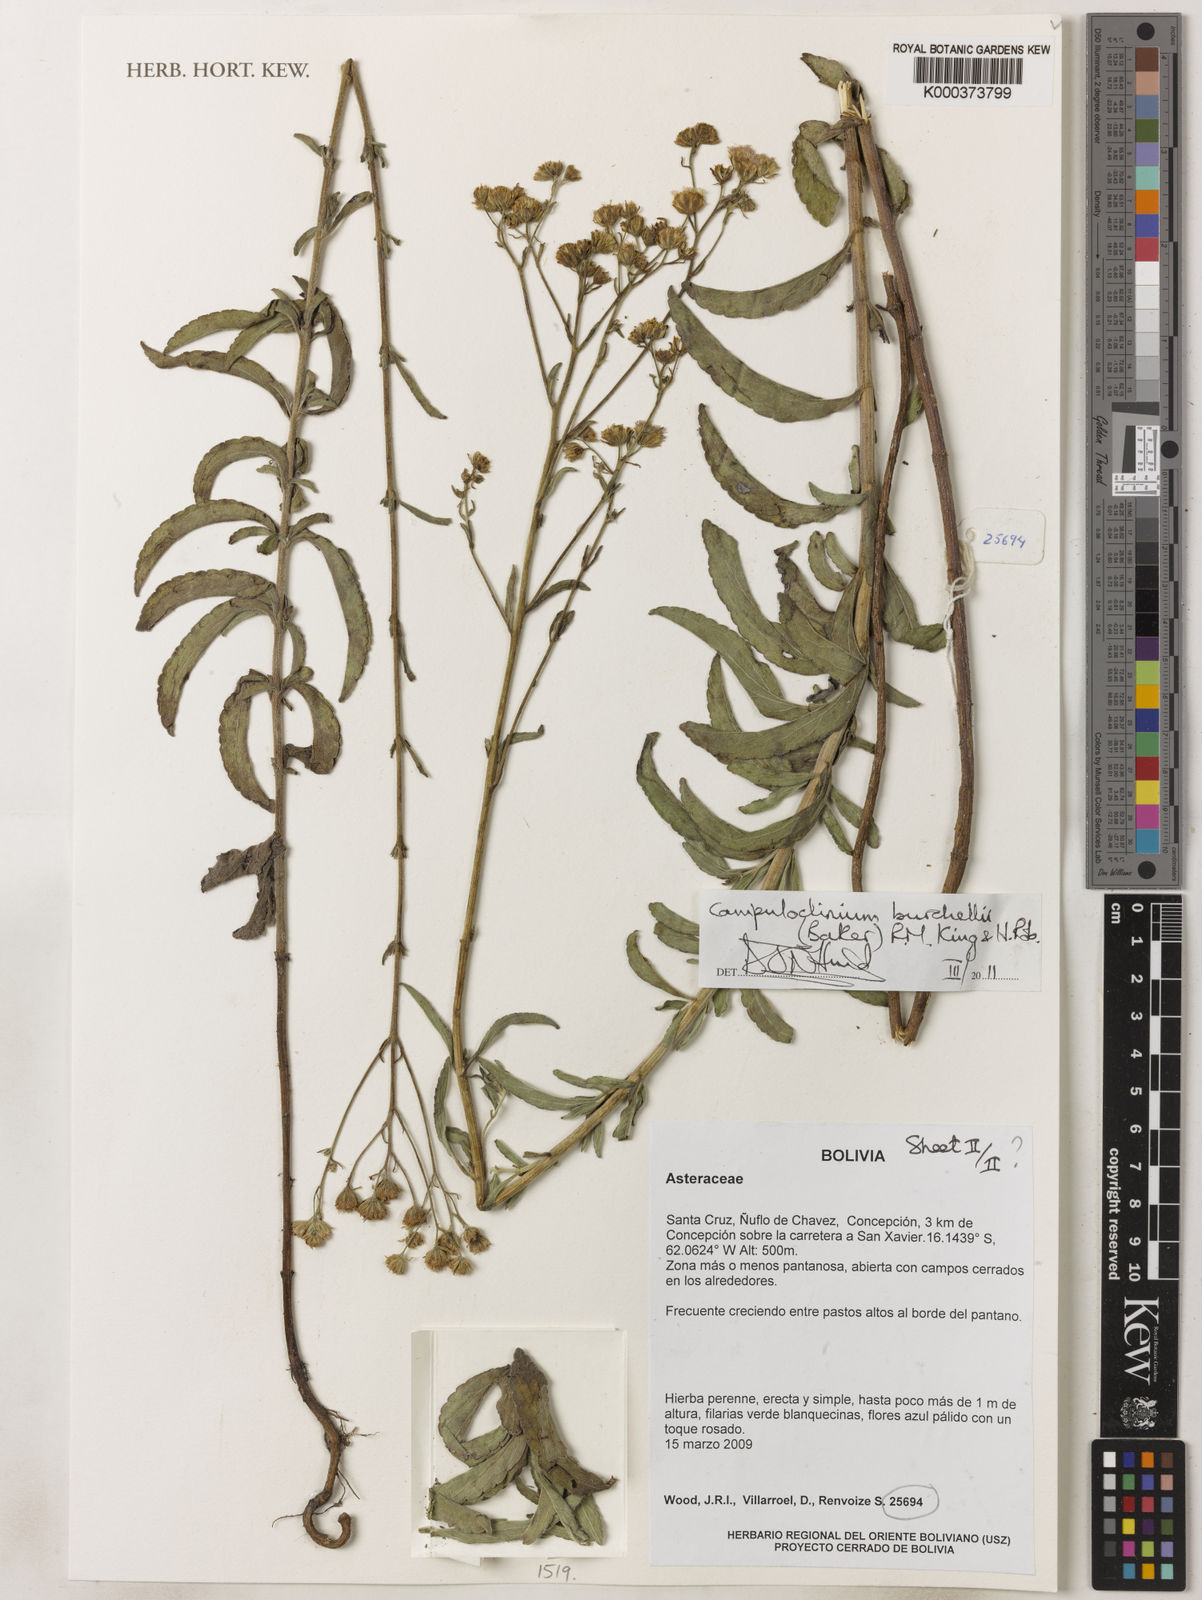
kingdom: Plantae
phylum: Tracheophyta
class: Magnoliopsida
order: Asterales
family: Asteraceae
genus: Campuloclinium
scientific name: Campuloclinium burchellii
